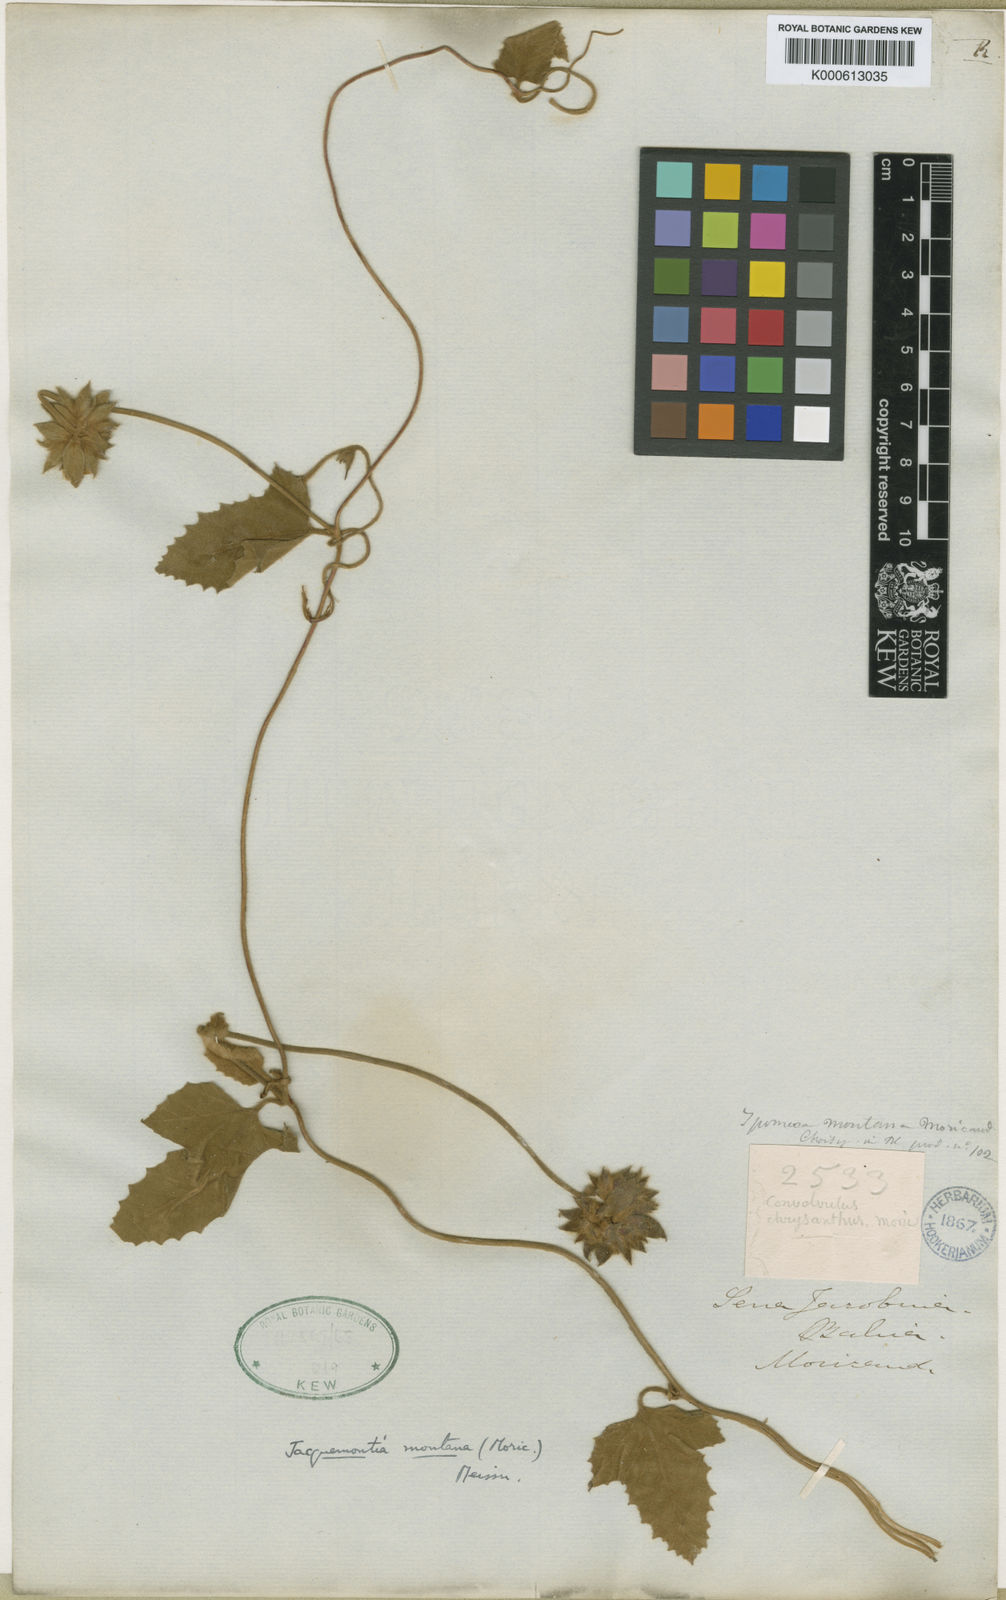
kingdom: Plantae
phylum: Tracheophyta
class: Magnoliopsida
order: Solanales
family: Convolvulaceae
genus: Daustinia
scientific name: Daustinia montana
